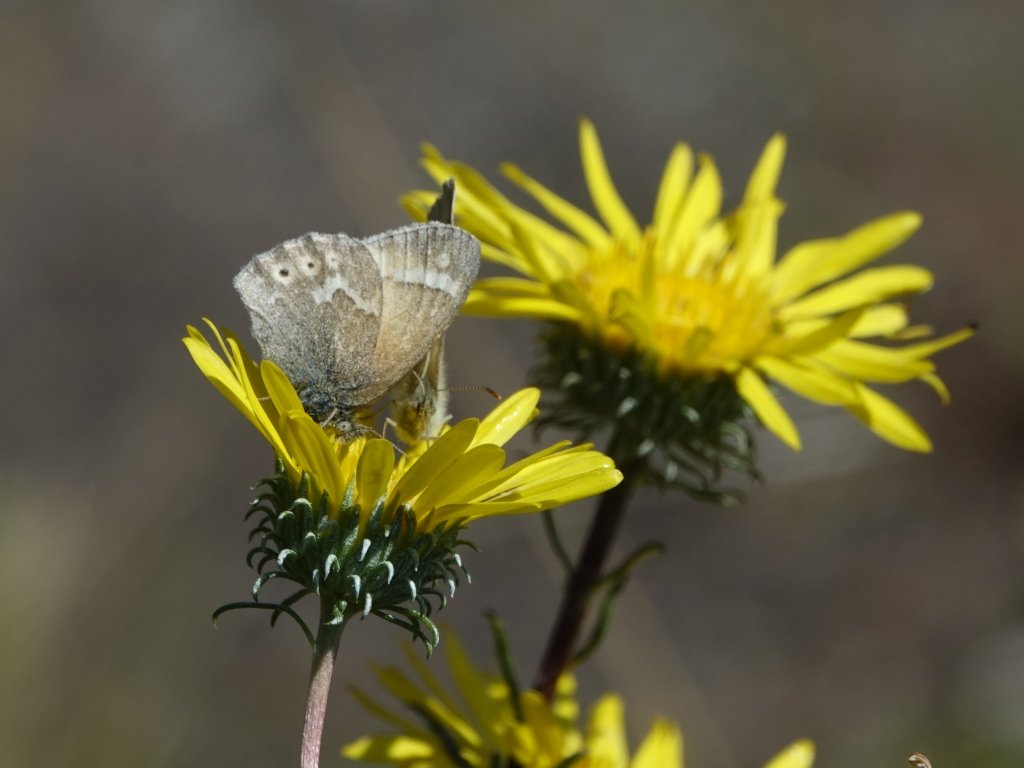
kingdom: Animalia
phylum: Arthropoda
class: Insecta
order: Lepidoptera
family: Nymphalidae
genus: Coenonympha
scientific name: Coenonympha tullia
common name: Large Heath
